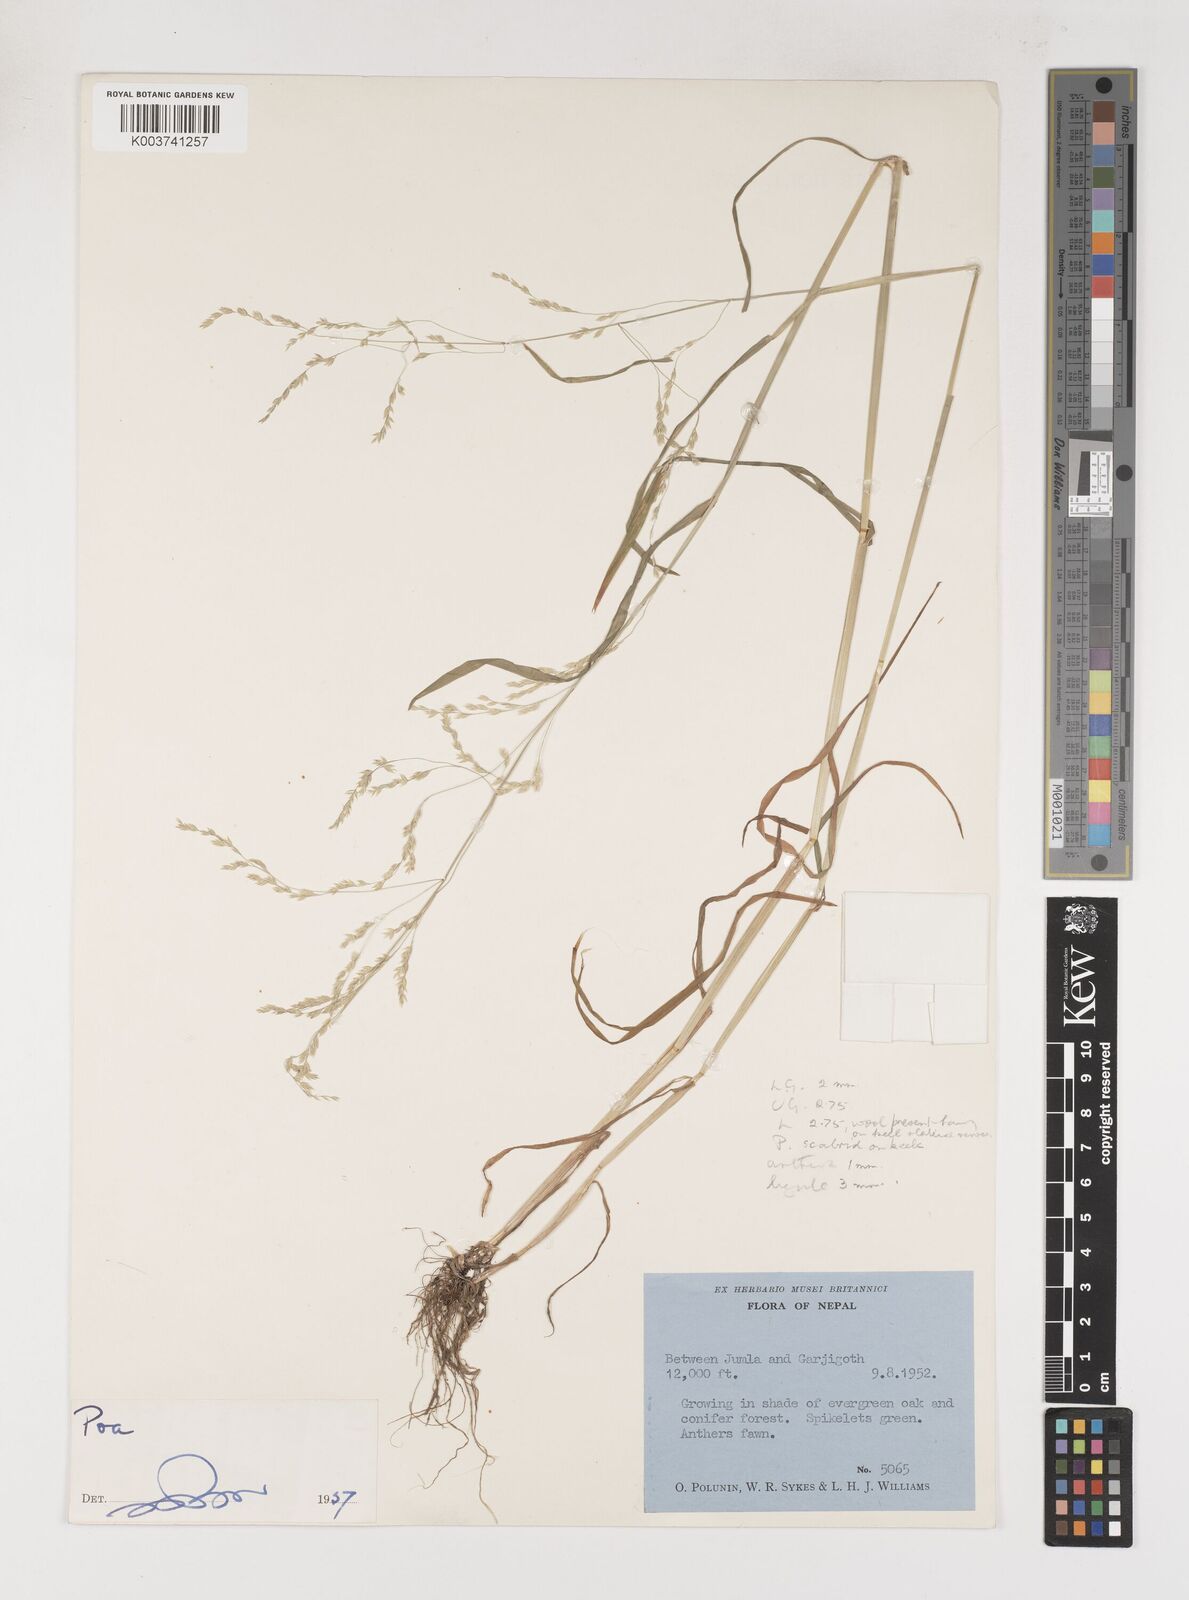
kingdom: Plantae
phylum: Tracheophyta
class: Liliopsida
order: Poales
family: Poaceae
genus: Poa
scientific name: Poa
